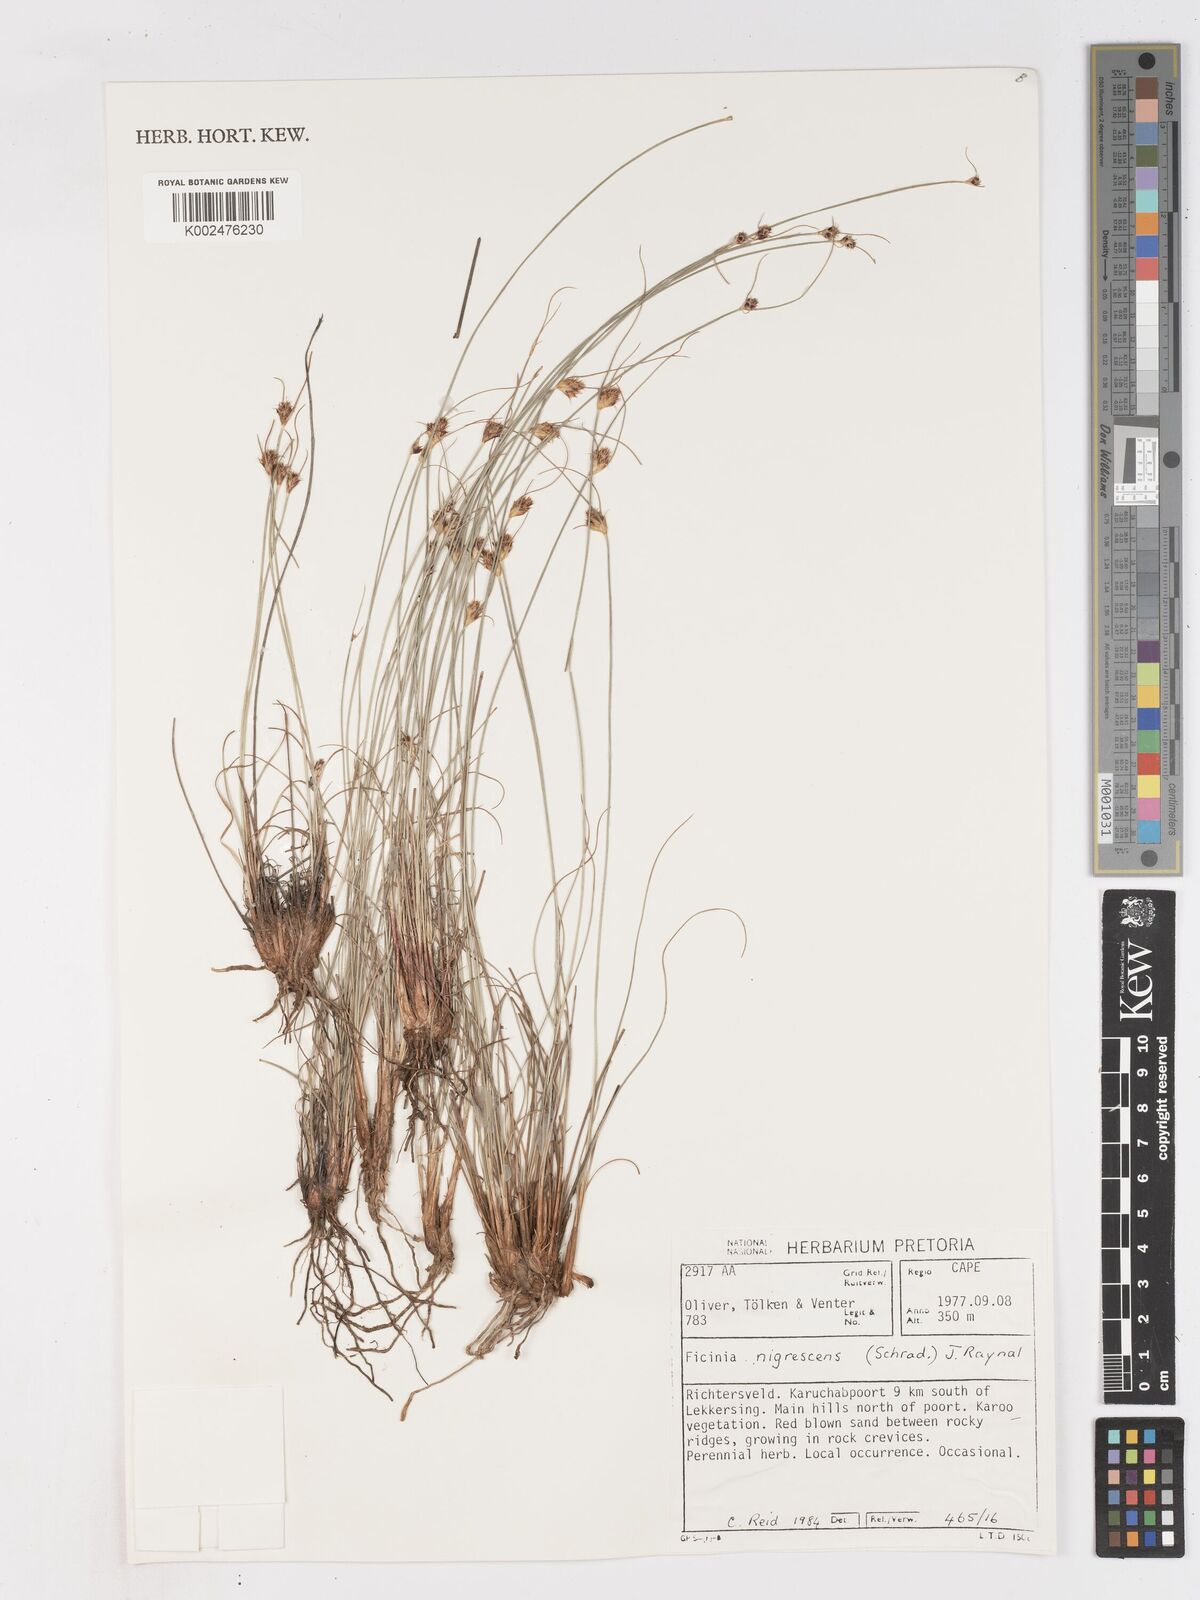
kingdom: Plantae
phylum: Tracheophyta
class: Liliopsida
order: Poales
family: Cyperaceae
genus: Ficinia
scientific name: Ficinia nigrescens
